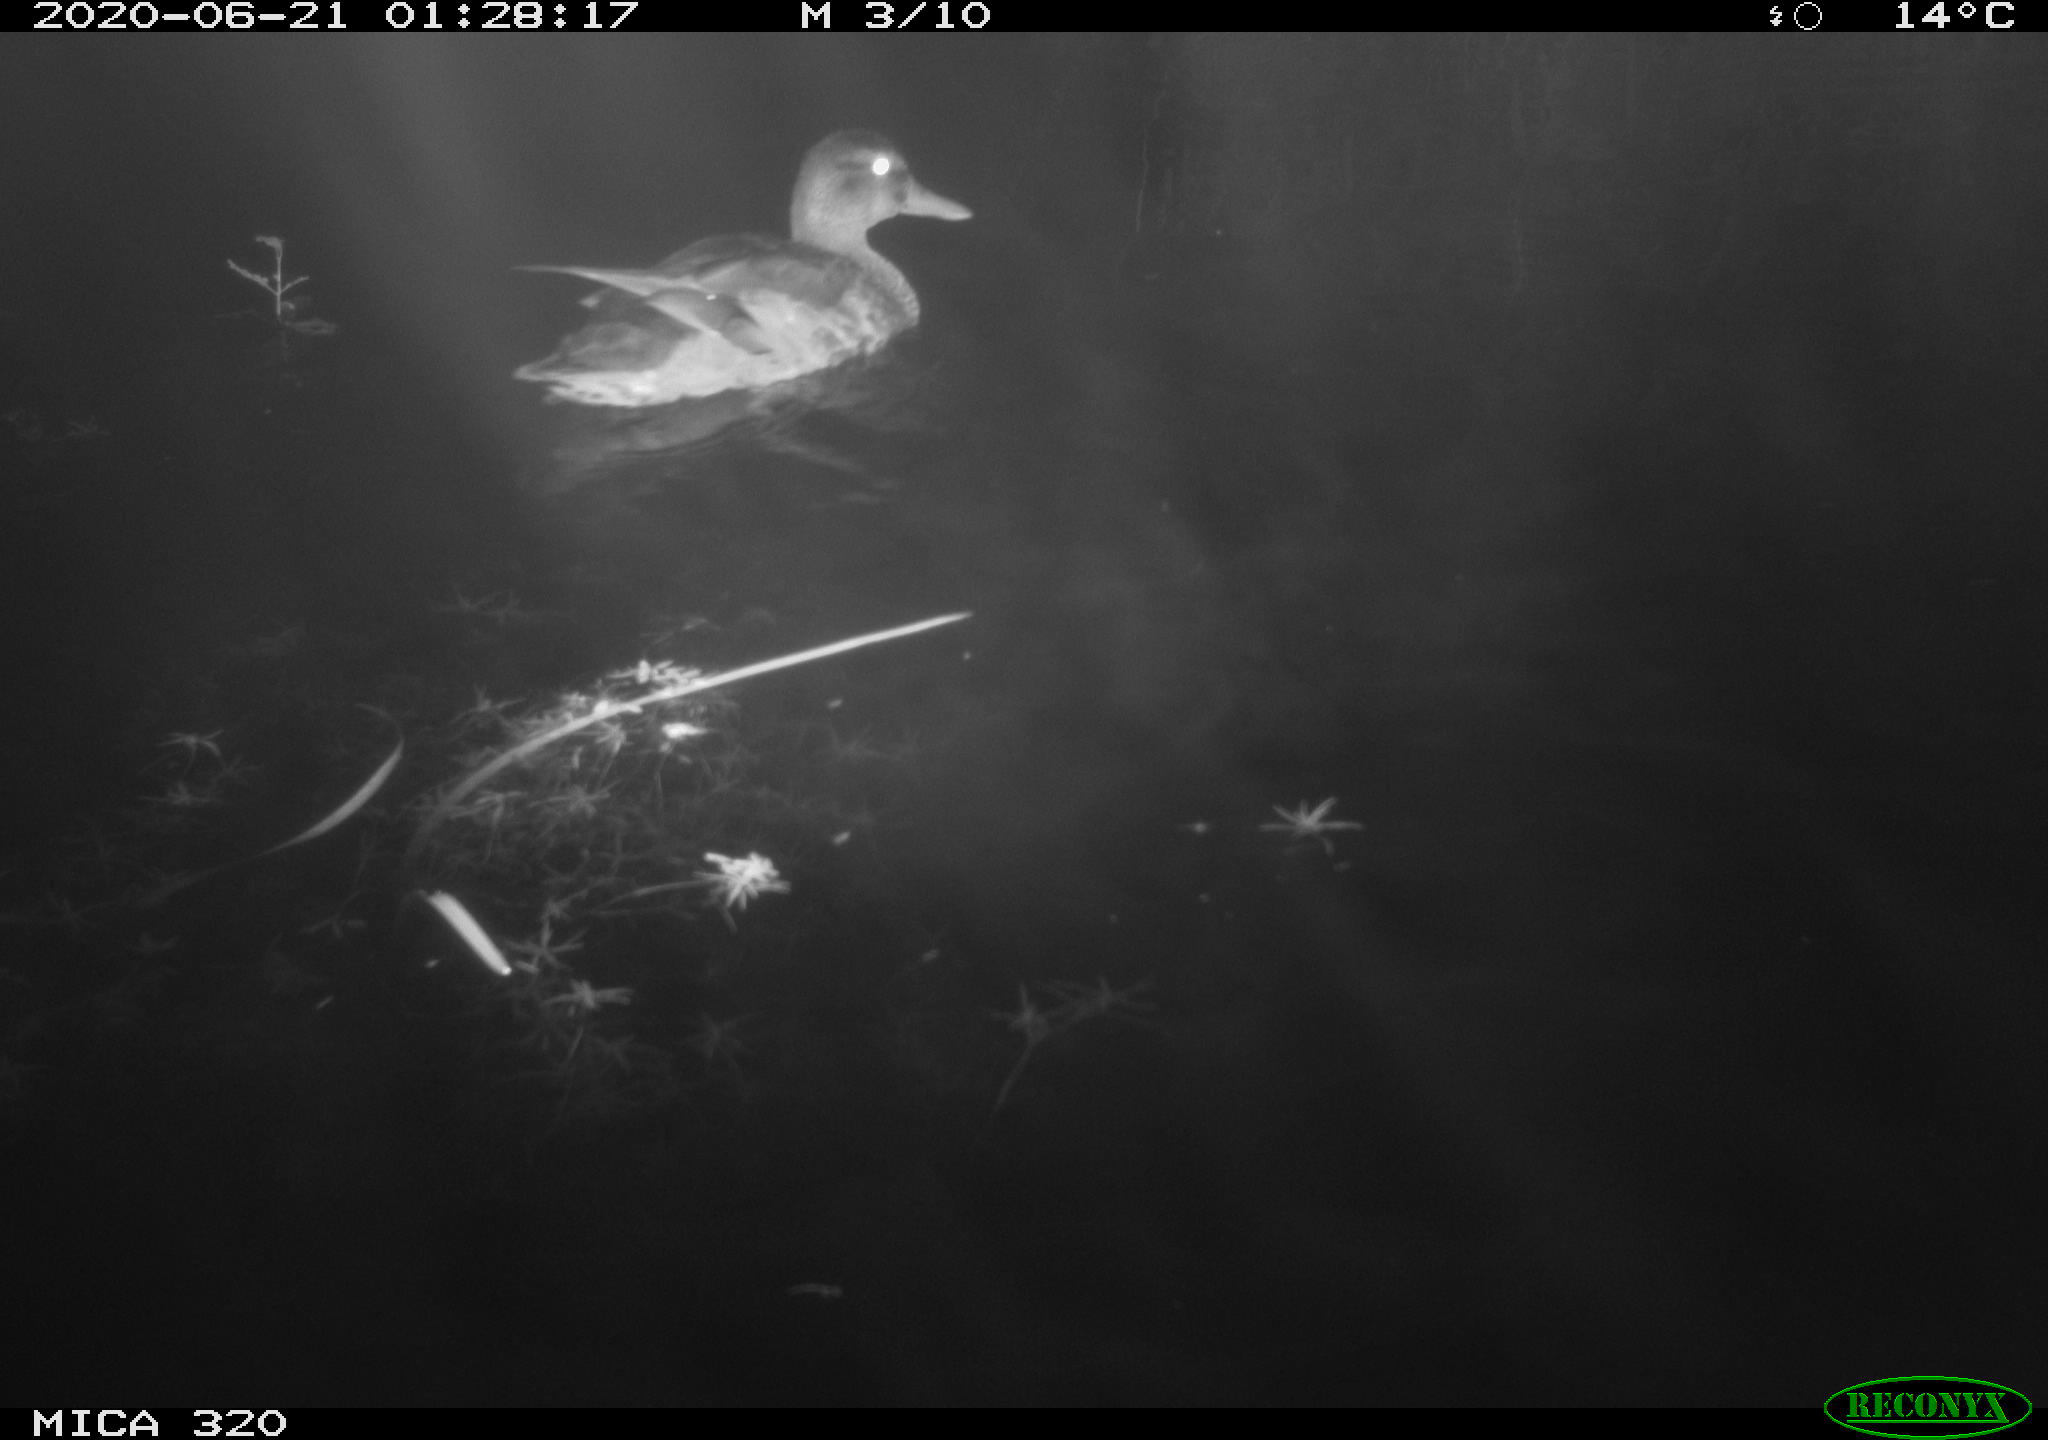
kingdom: Animalia
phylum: Chordata
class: Aves
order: Anseriformes
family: Anatidae
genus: Anas
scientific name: Anas platyrhynchos
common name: Mallard
